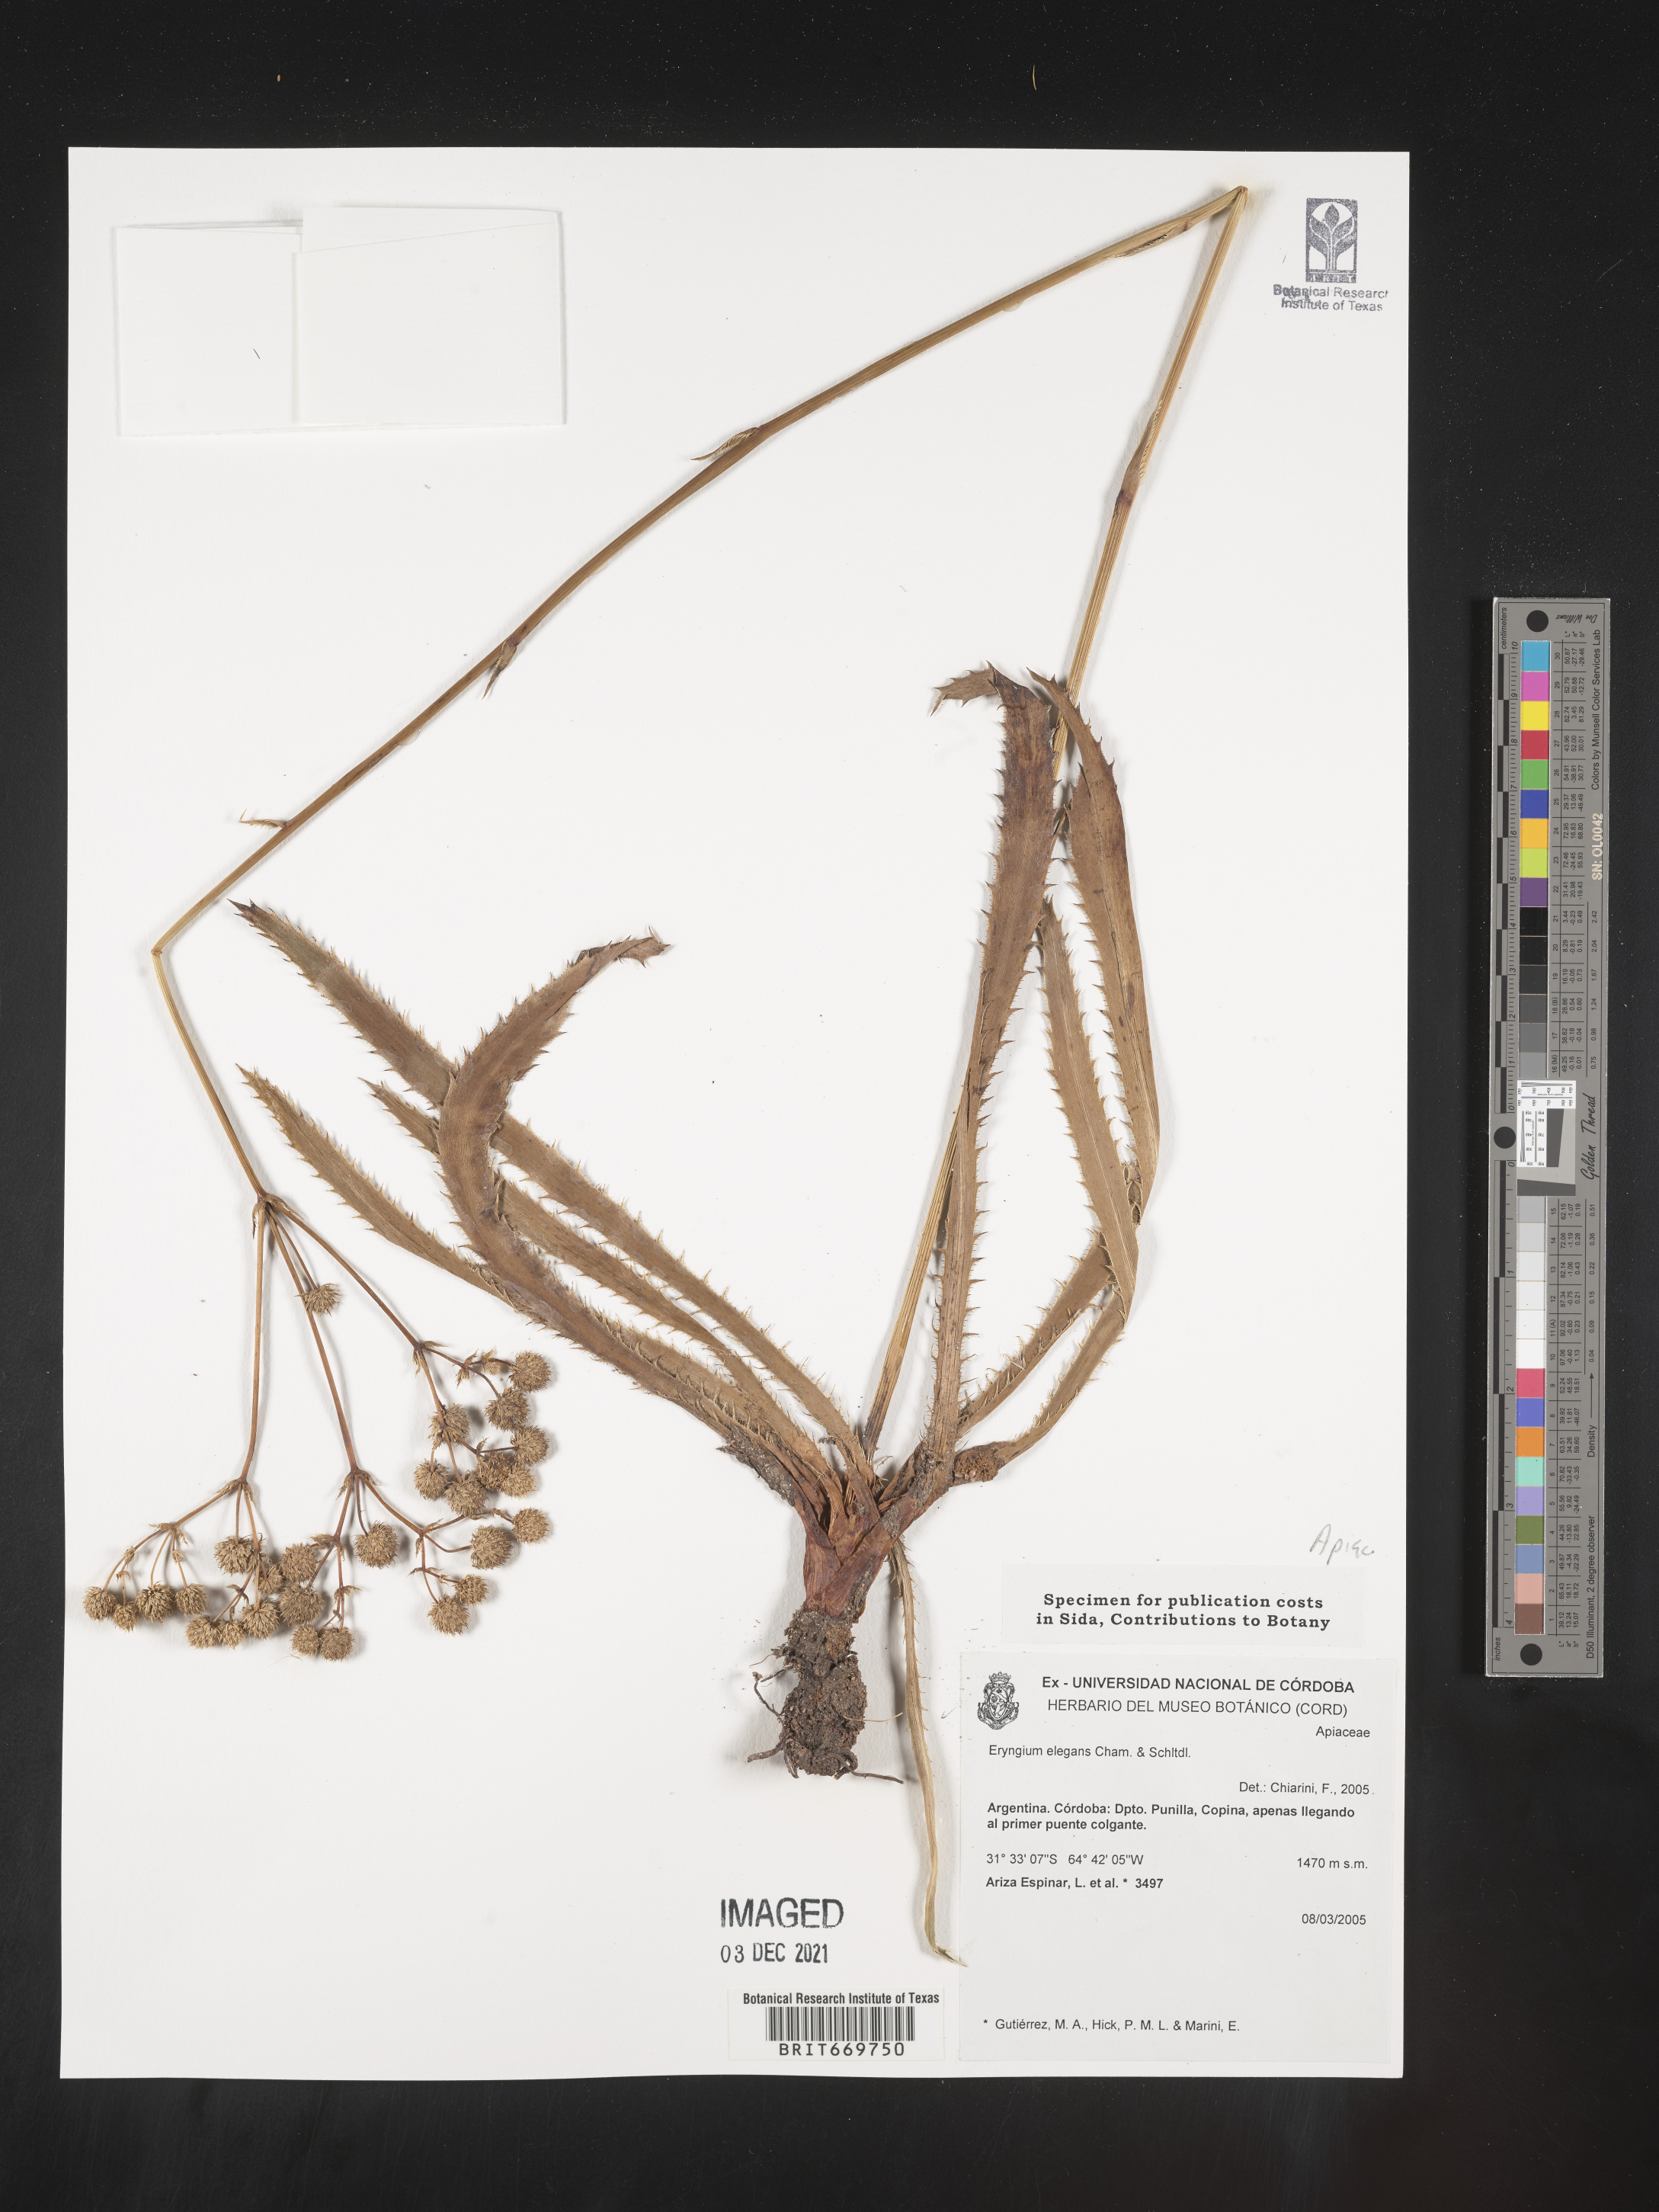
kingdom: Plantae
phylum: Tracheophyta
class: Magnoliopsida
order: Apiales
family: Apiaceae
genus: Eryngium
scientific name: Eryngium
